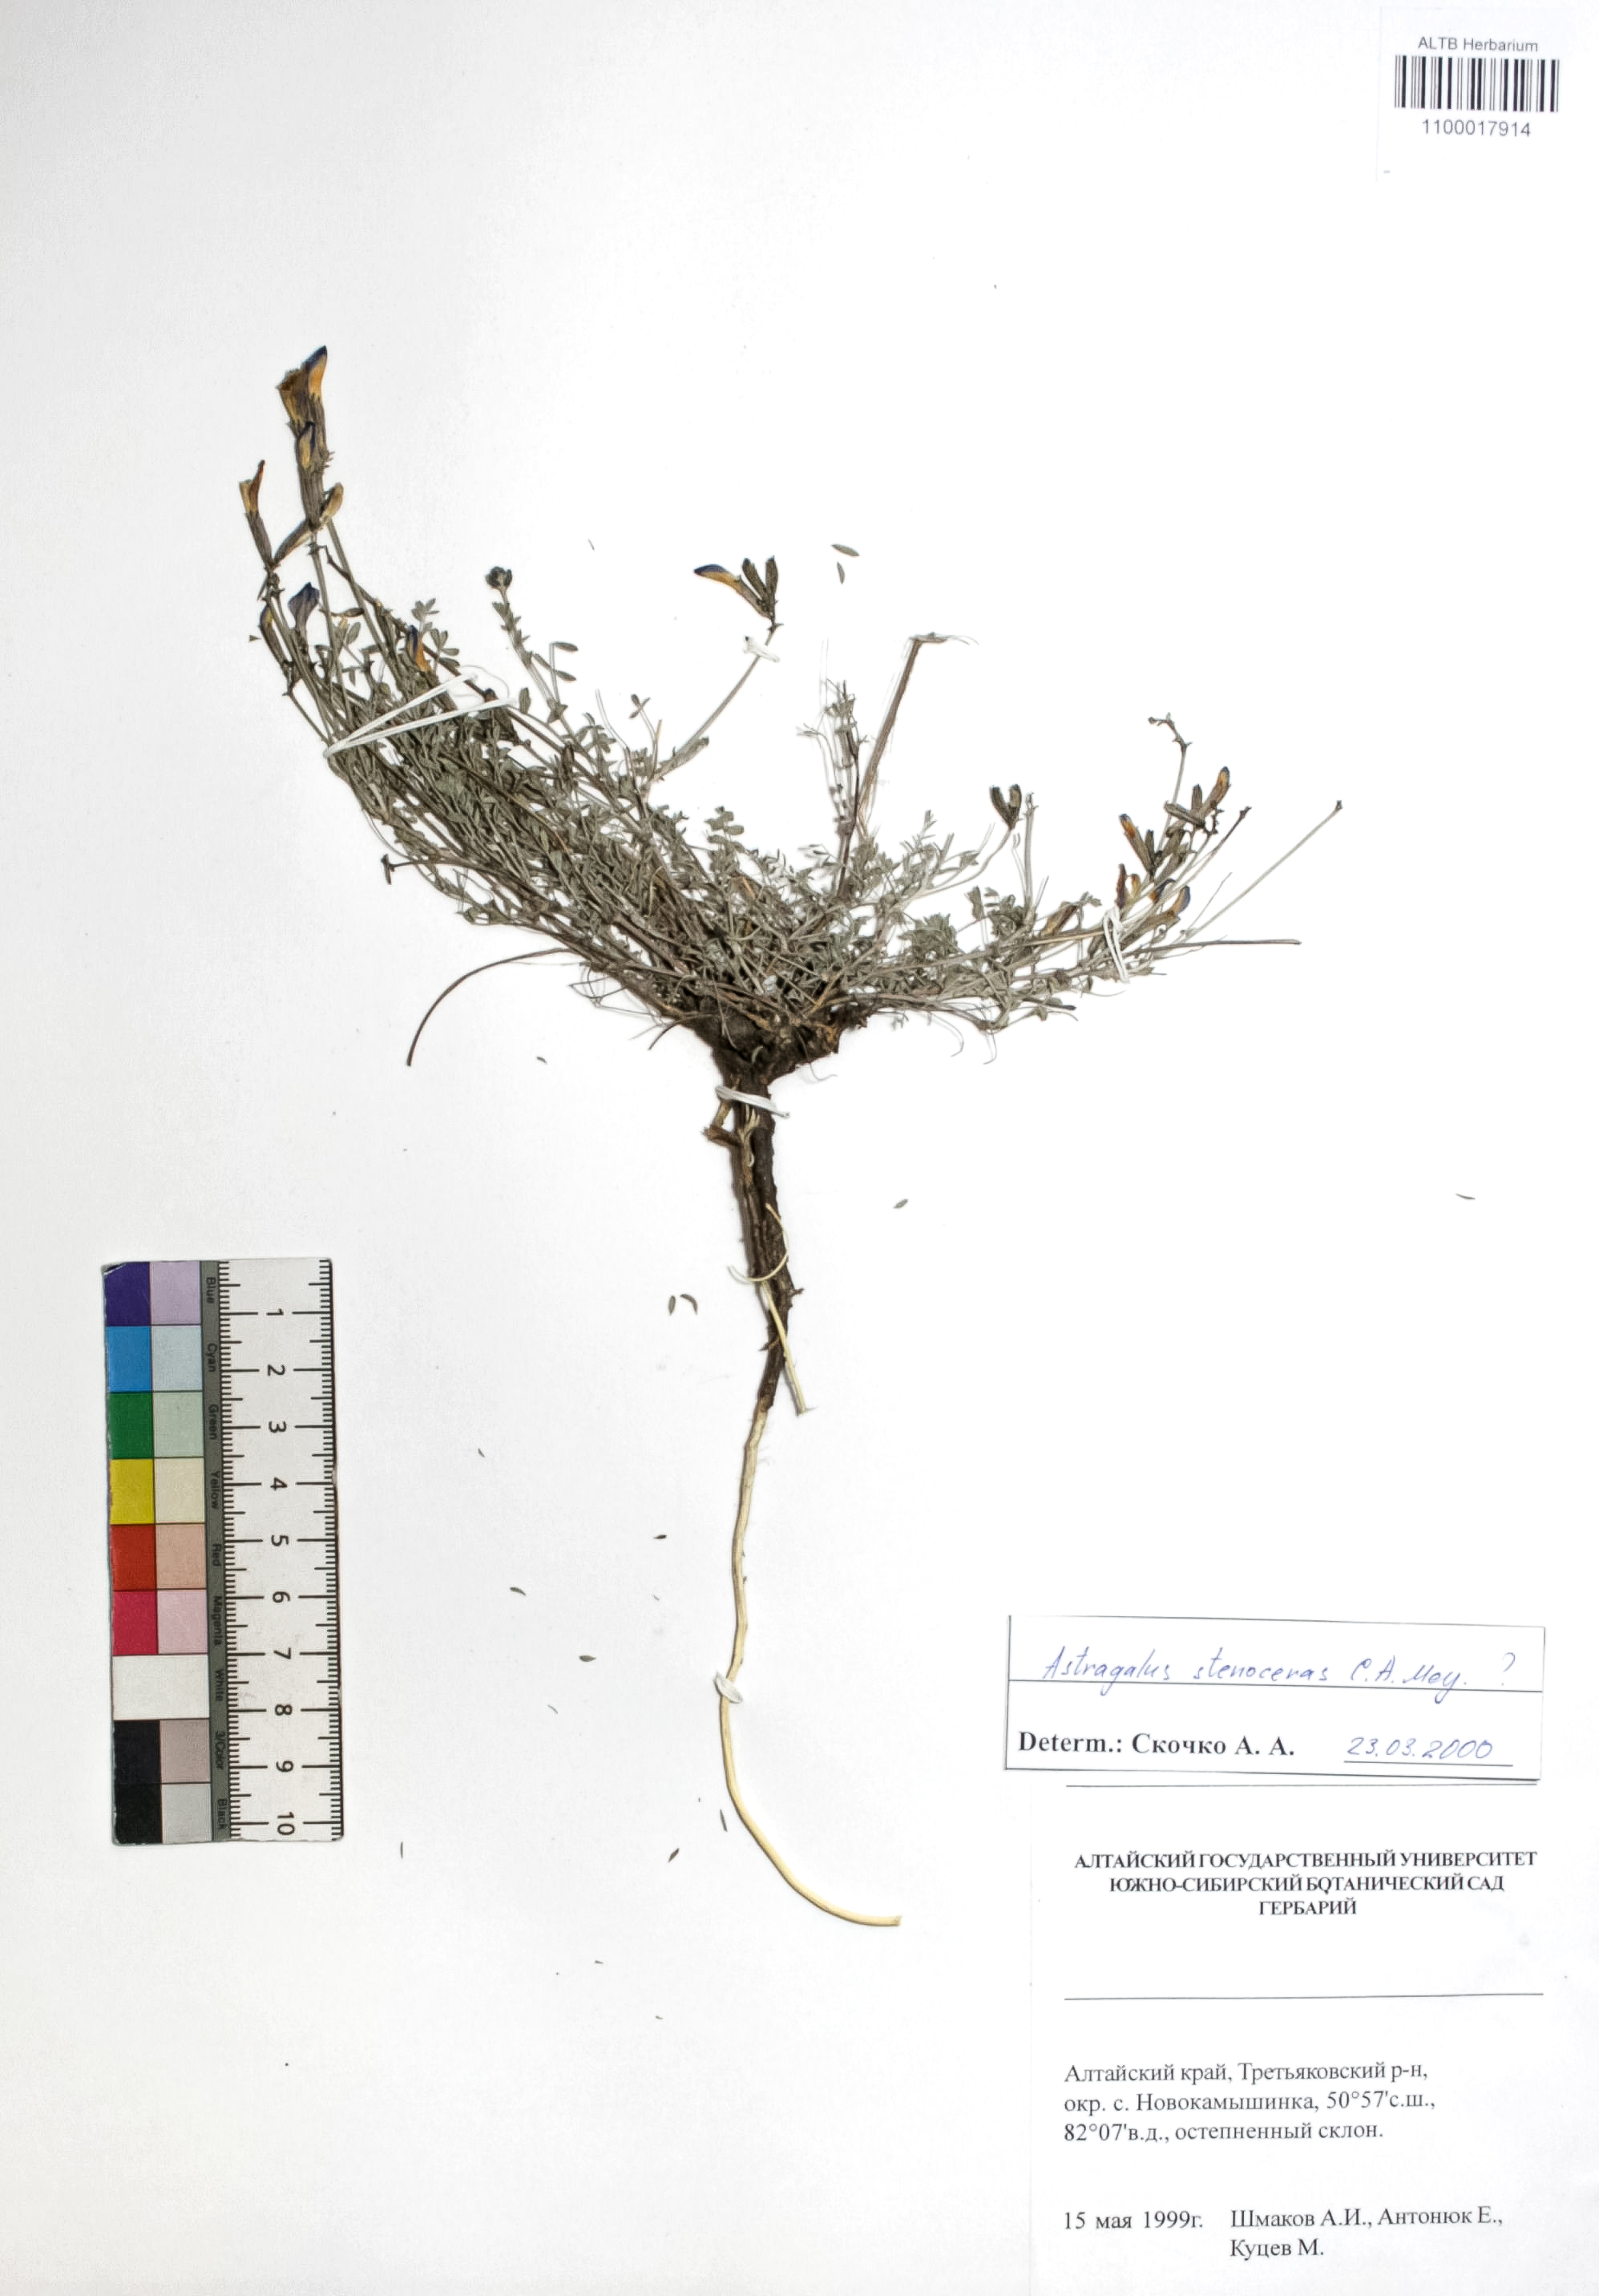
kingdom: Plantae
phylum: Tracheophyta
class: Magnoliopsida
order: Fabales
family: Fabaceae
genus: Astragalus
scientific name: Astragalus stenoceras
